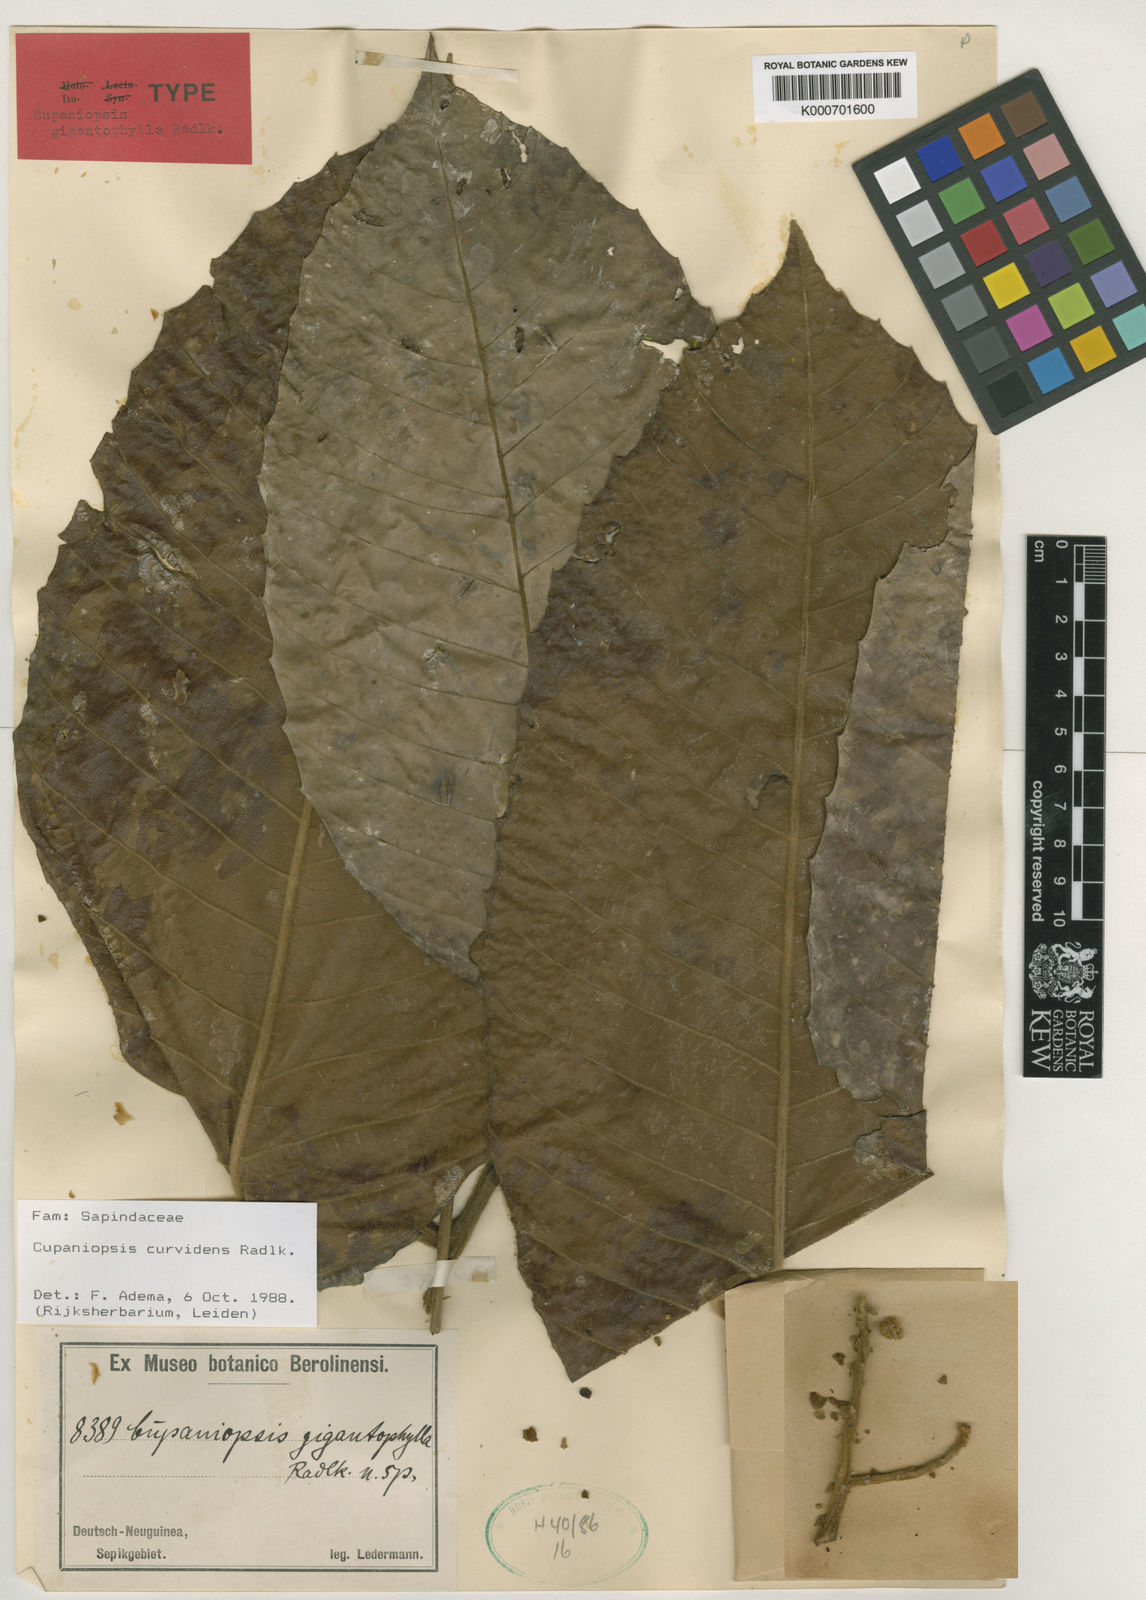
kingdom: Plantae
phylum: Tracheophyta
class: Magnoliopsida
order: Sapindales
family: Sapindaceae
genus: Cupaniopsis
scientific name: Cupaniopsis curvidens
